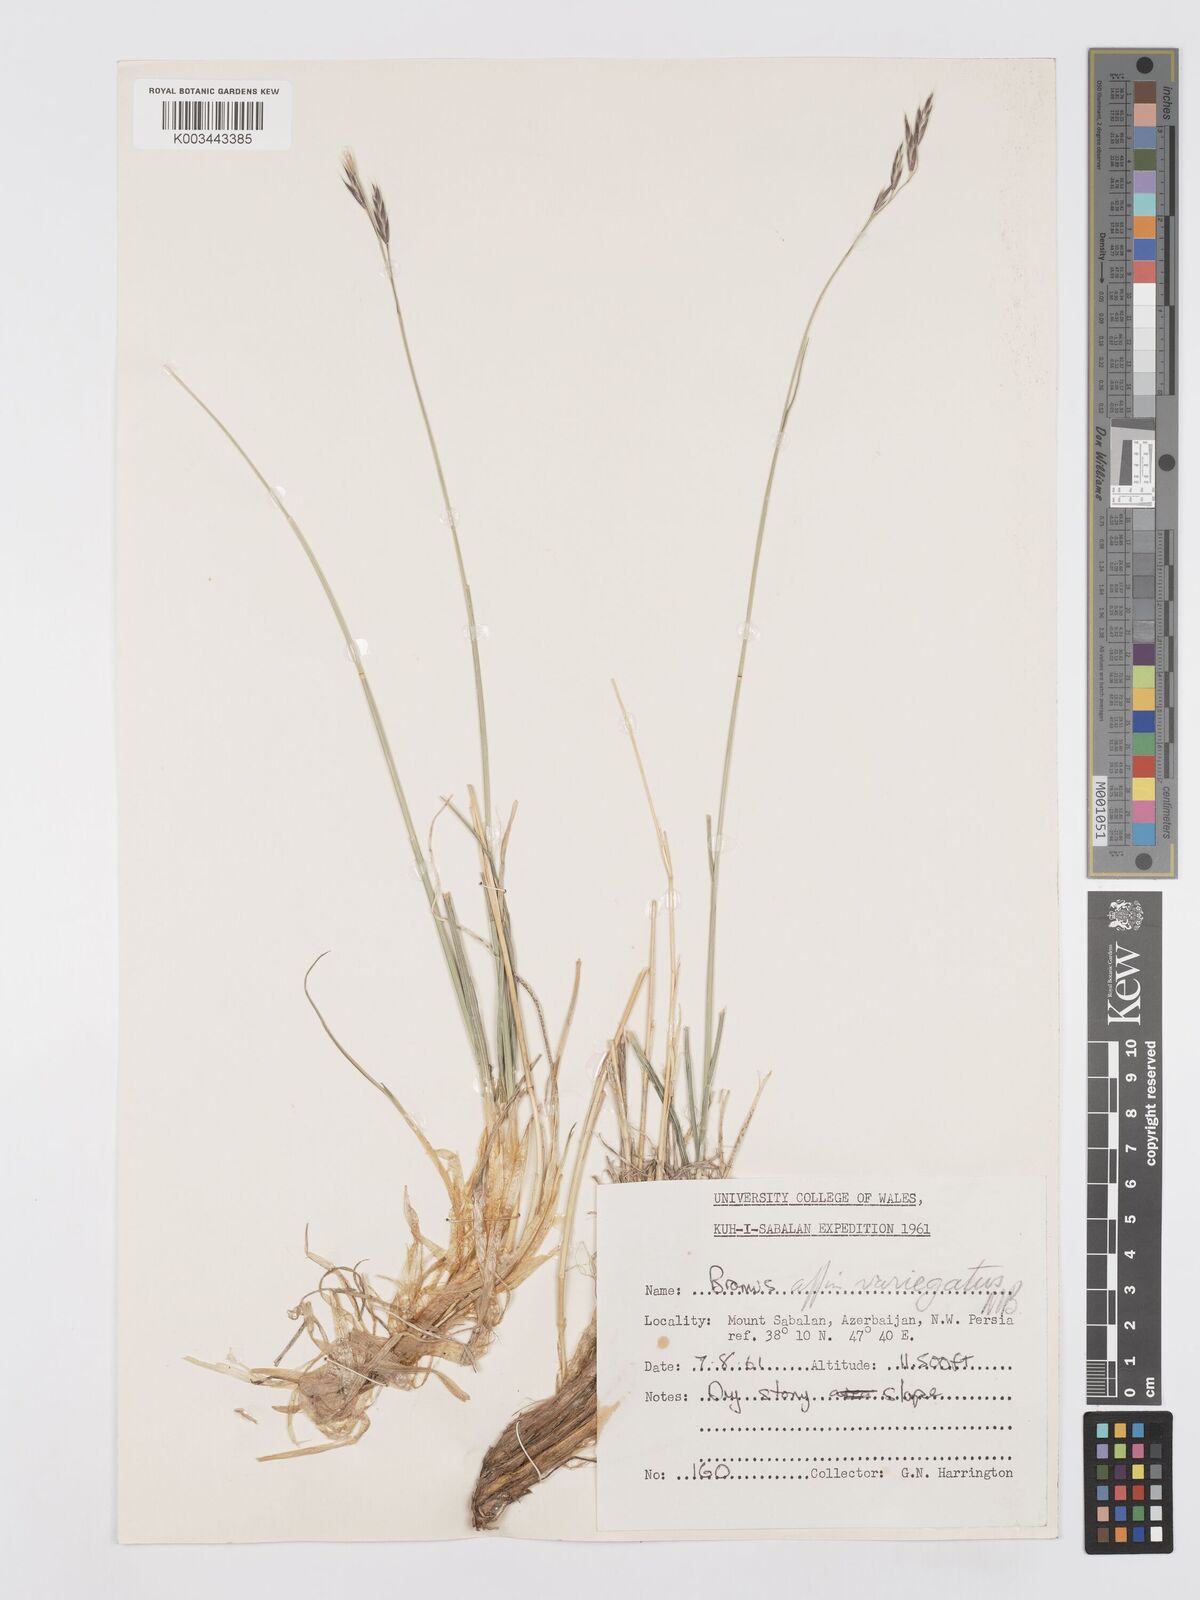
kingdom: Plantae
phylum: Tracheophyta
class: Liliopsida
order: Poales
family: Poaceae
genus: Bromus
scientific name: Bromus variegatus
